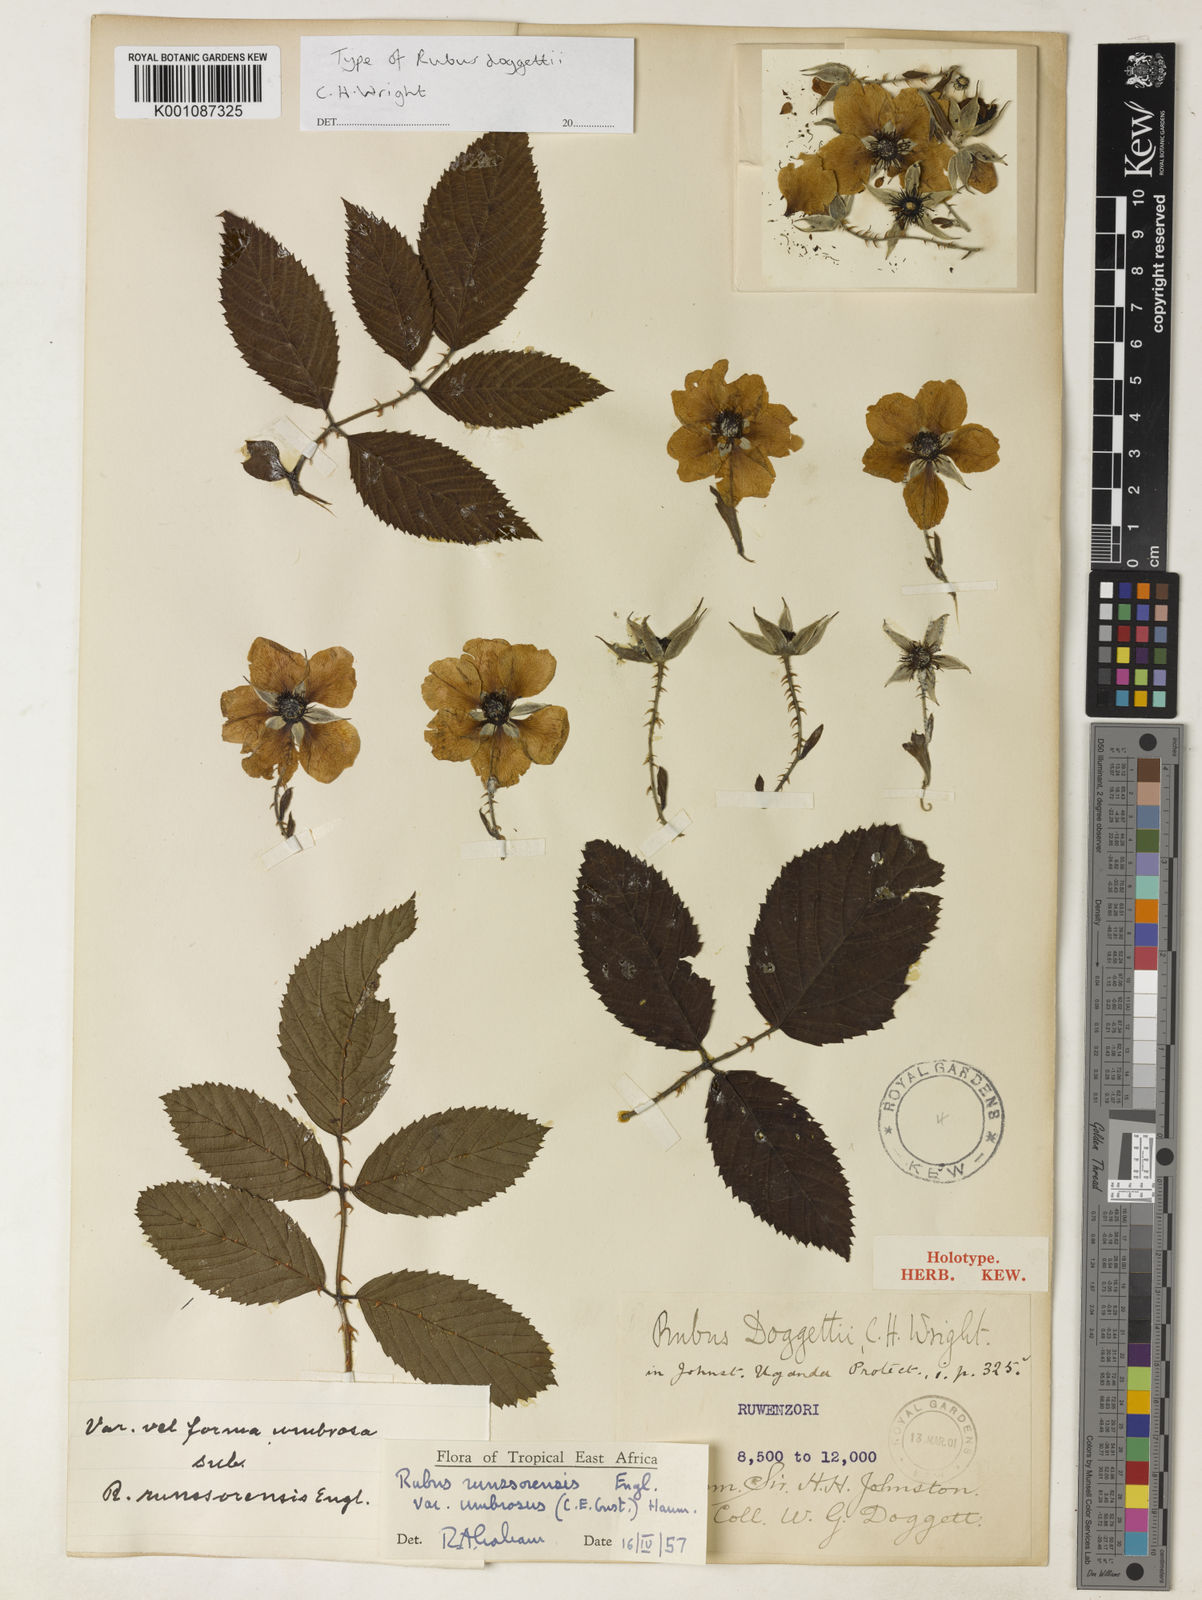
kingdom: Plantae
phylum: Tracheophyta
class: Magnoliopsida
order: Rosales
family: Rosaceae
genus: Rubus
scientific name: Rubus runssorensis
